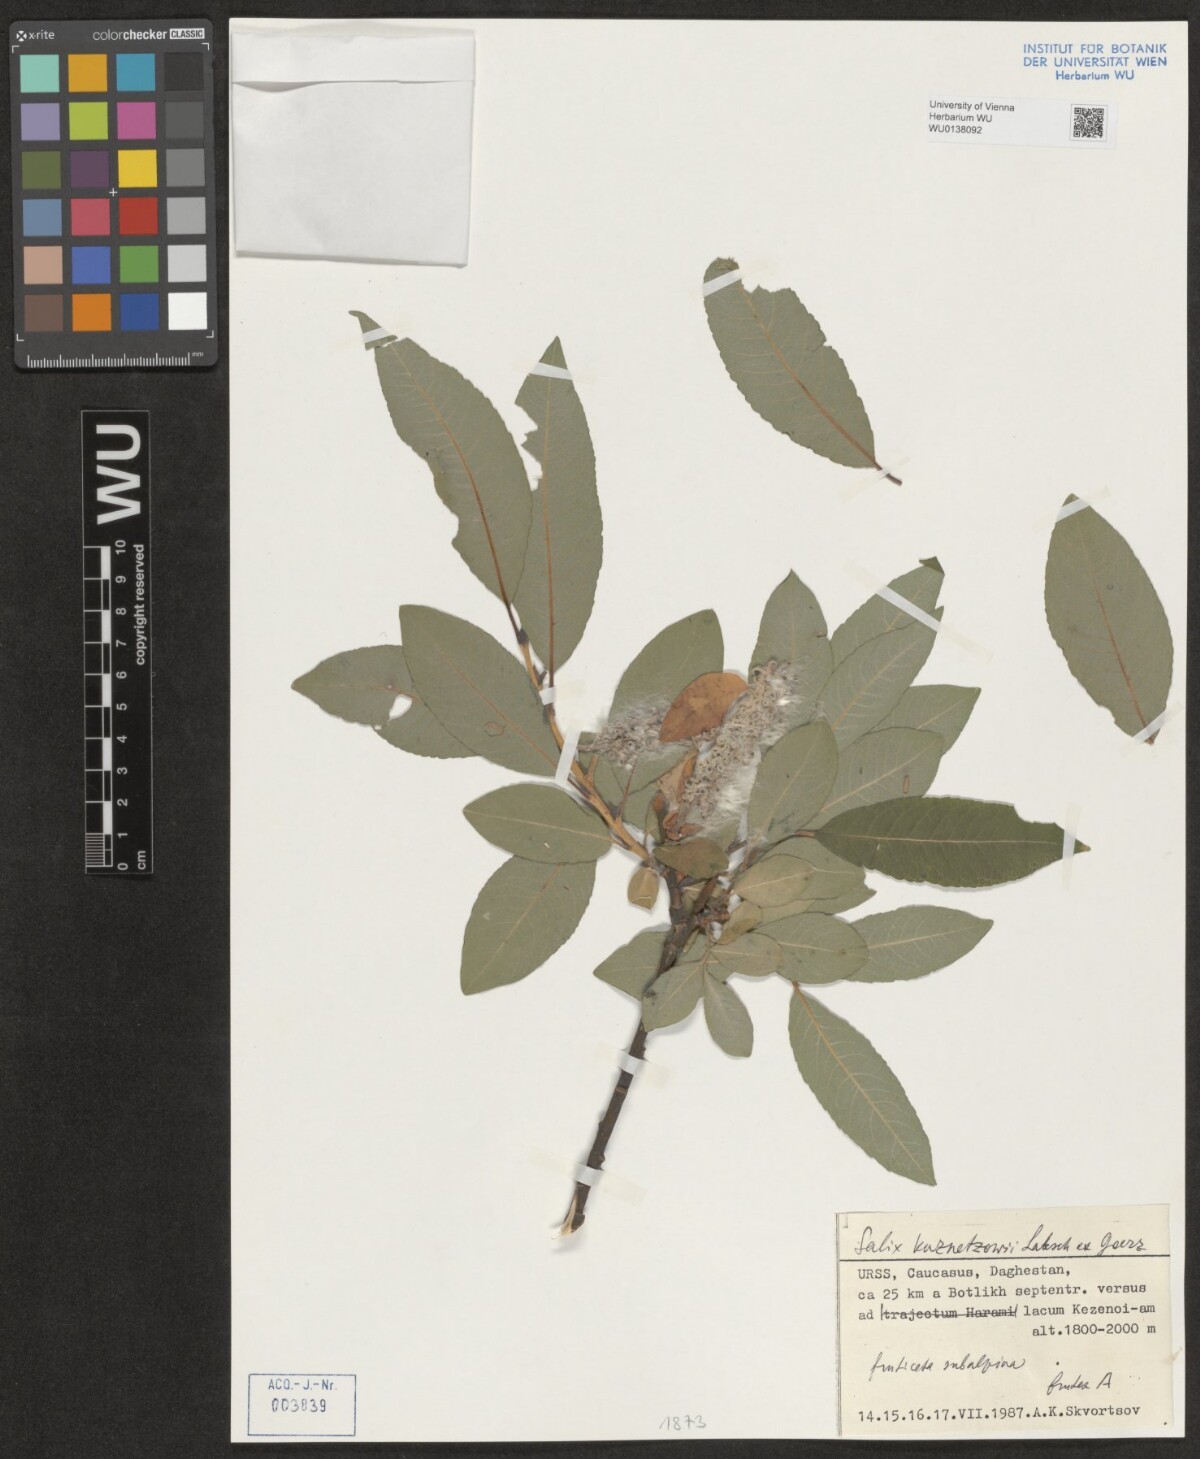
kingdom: Plantae
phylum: Tracheophyta
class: Magnoliopsida
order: Malpighiales
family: Salicaceae
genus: Salix
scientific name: Salix kusnetzowii
